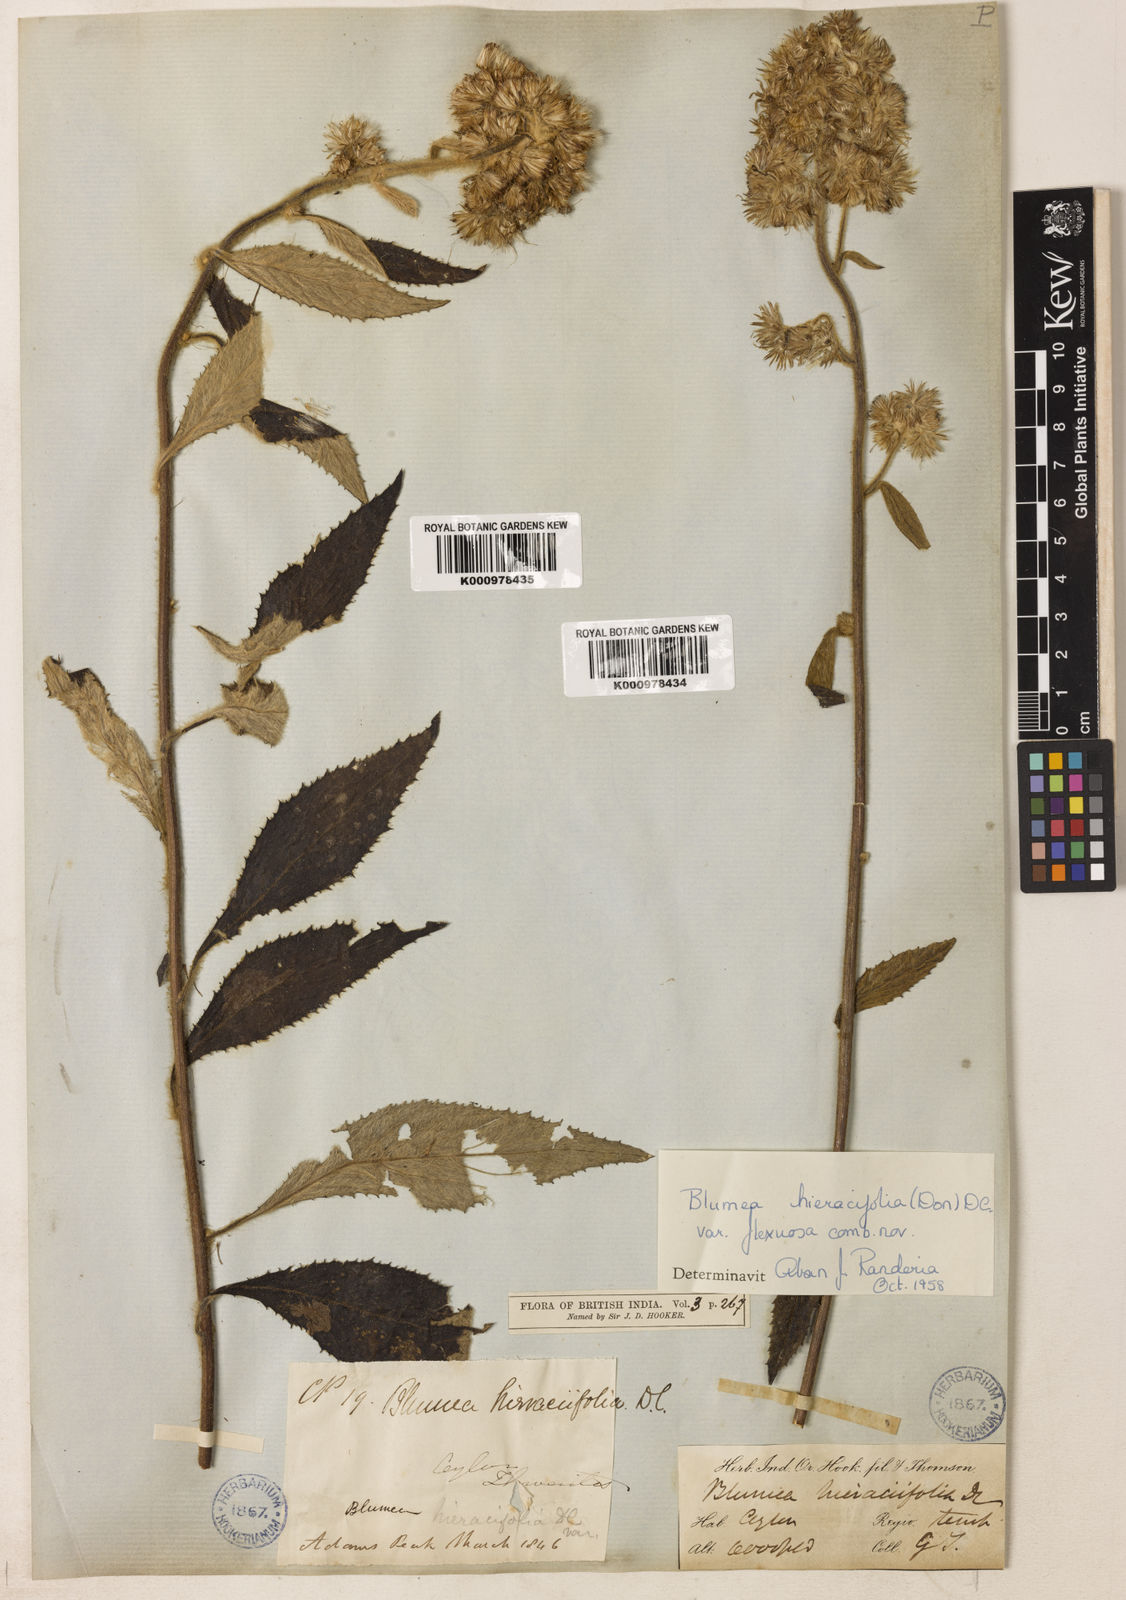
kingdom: Plantae
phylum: Tracheophyta
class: Magnoliopsida
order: Asterales
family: Asteraceae
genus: Blumea
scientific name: Blumea hieraciifolia
